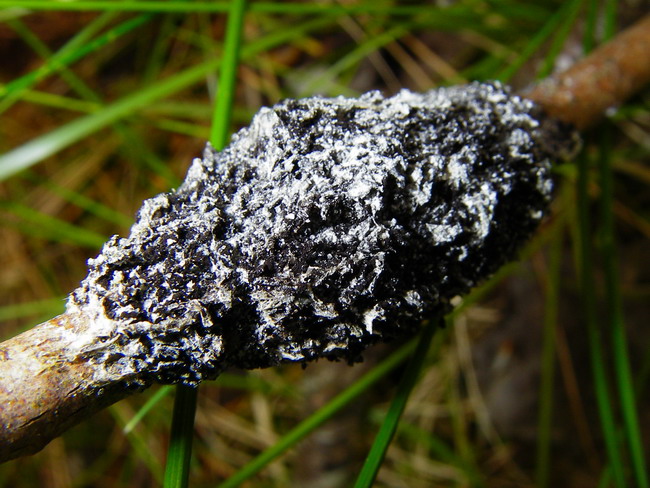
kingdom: Protozoa
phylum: Mycetozoa
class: Myxomycetes
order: Physarales
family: Physaraceae
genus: Didymium
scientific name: Didymium
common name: urteskum
